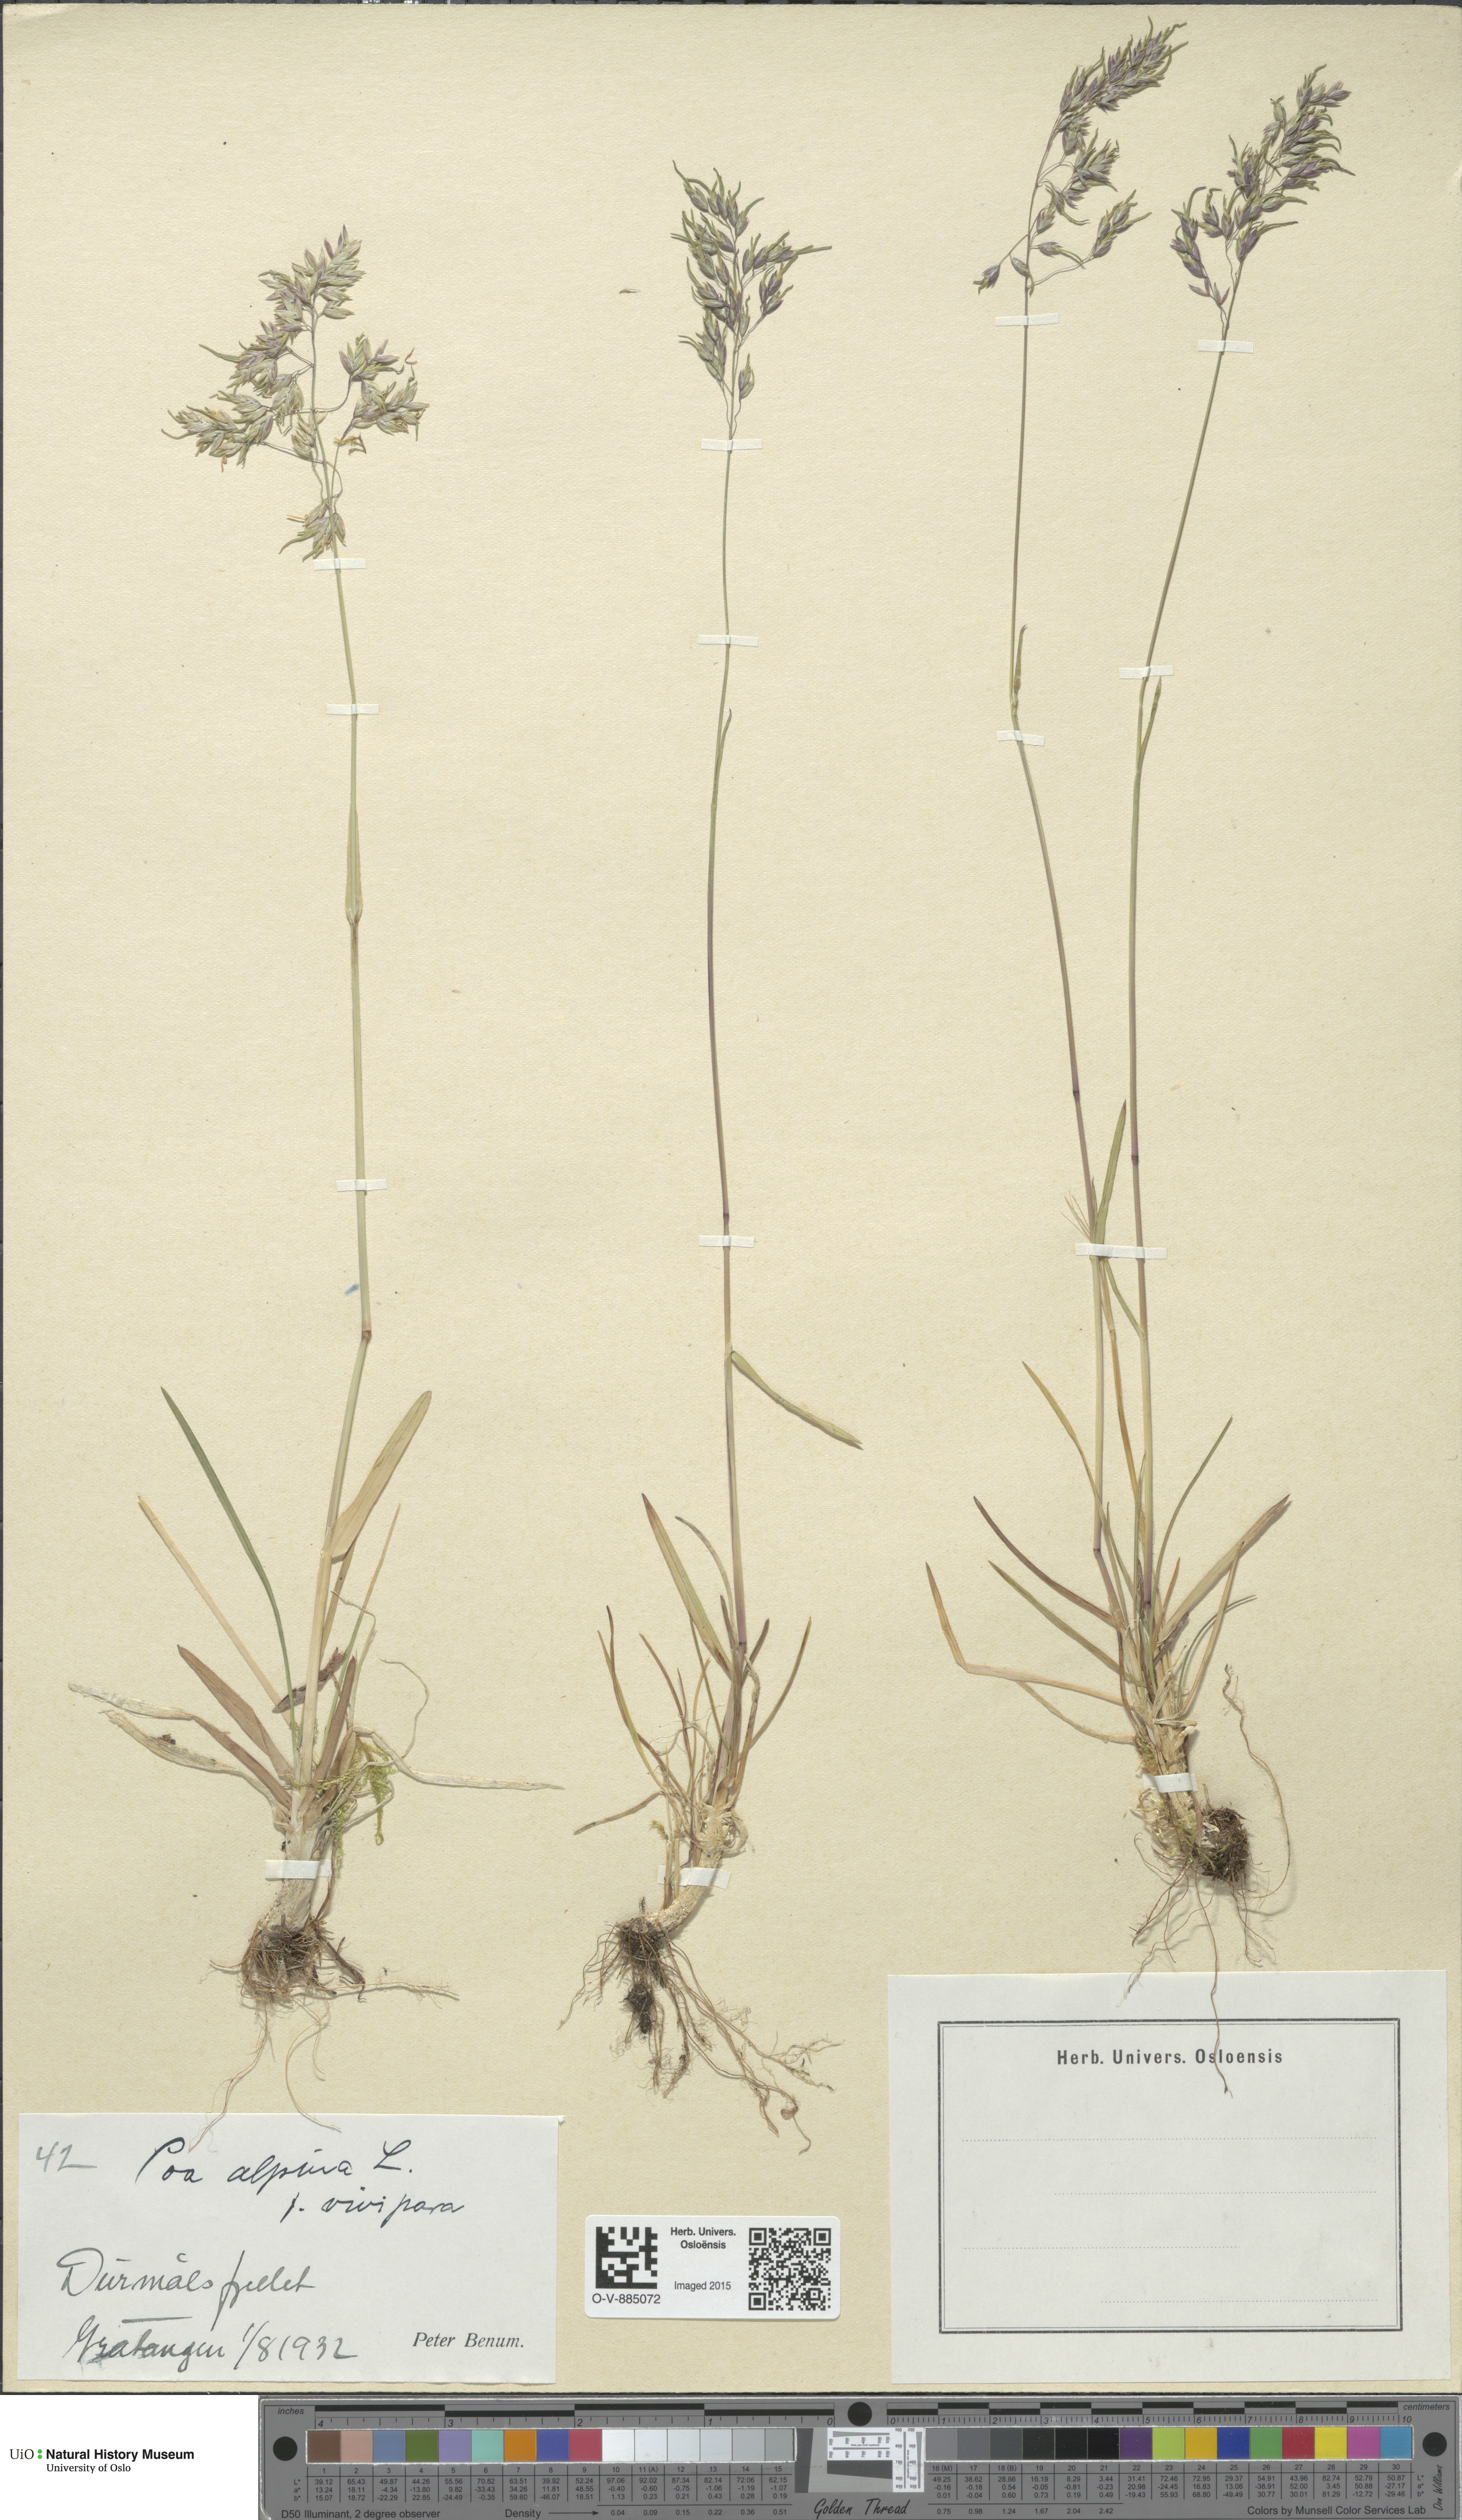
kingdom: Plantae
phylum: Tracheophyta
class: Liliopsida
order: Poales
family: Poaceae
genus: Poa
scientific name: Poa alpina
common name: Alpine bluegrass
